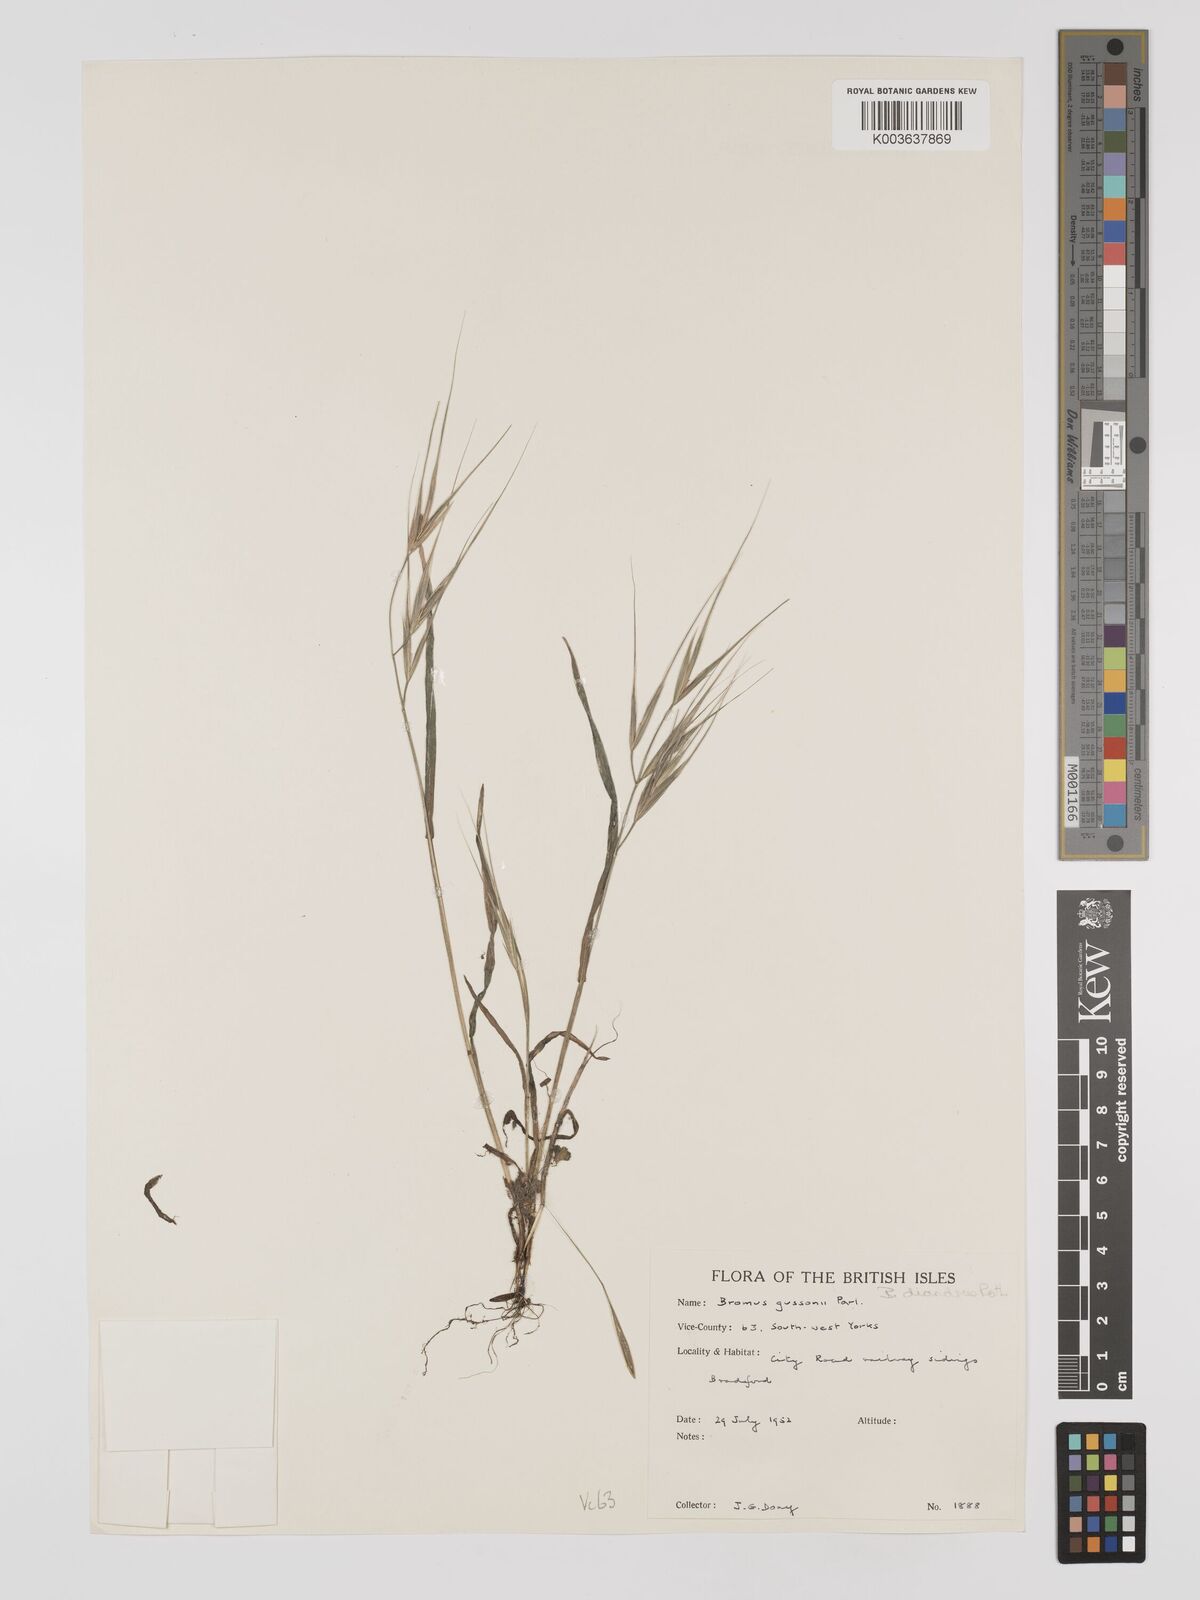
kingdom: Plantae
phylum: Tracheophyta
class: Liliopsida
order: Poales
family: Poaceae
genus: Bromus
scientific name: Bromus
